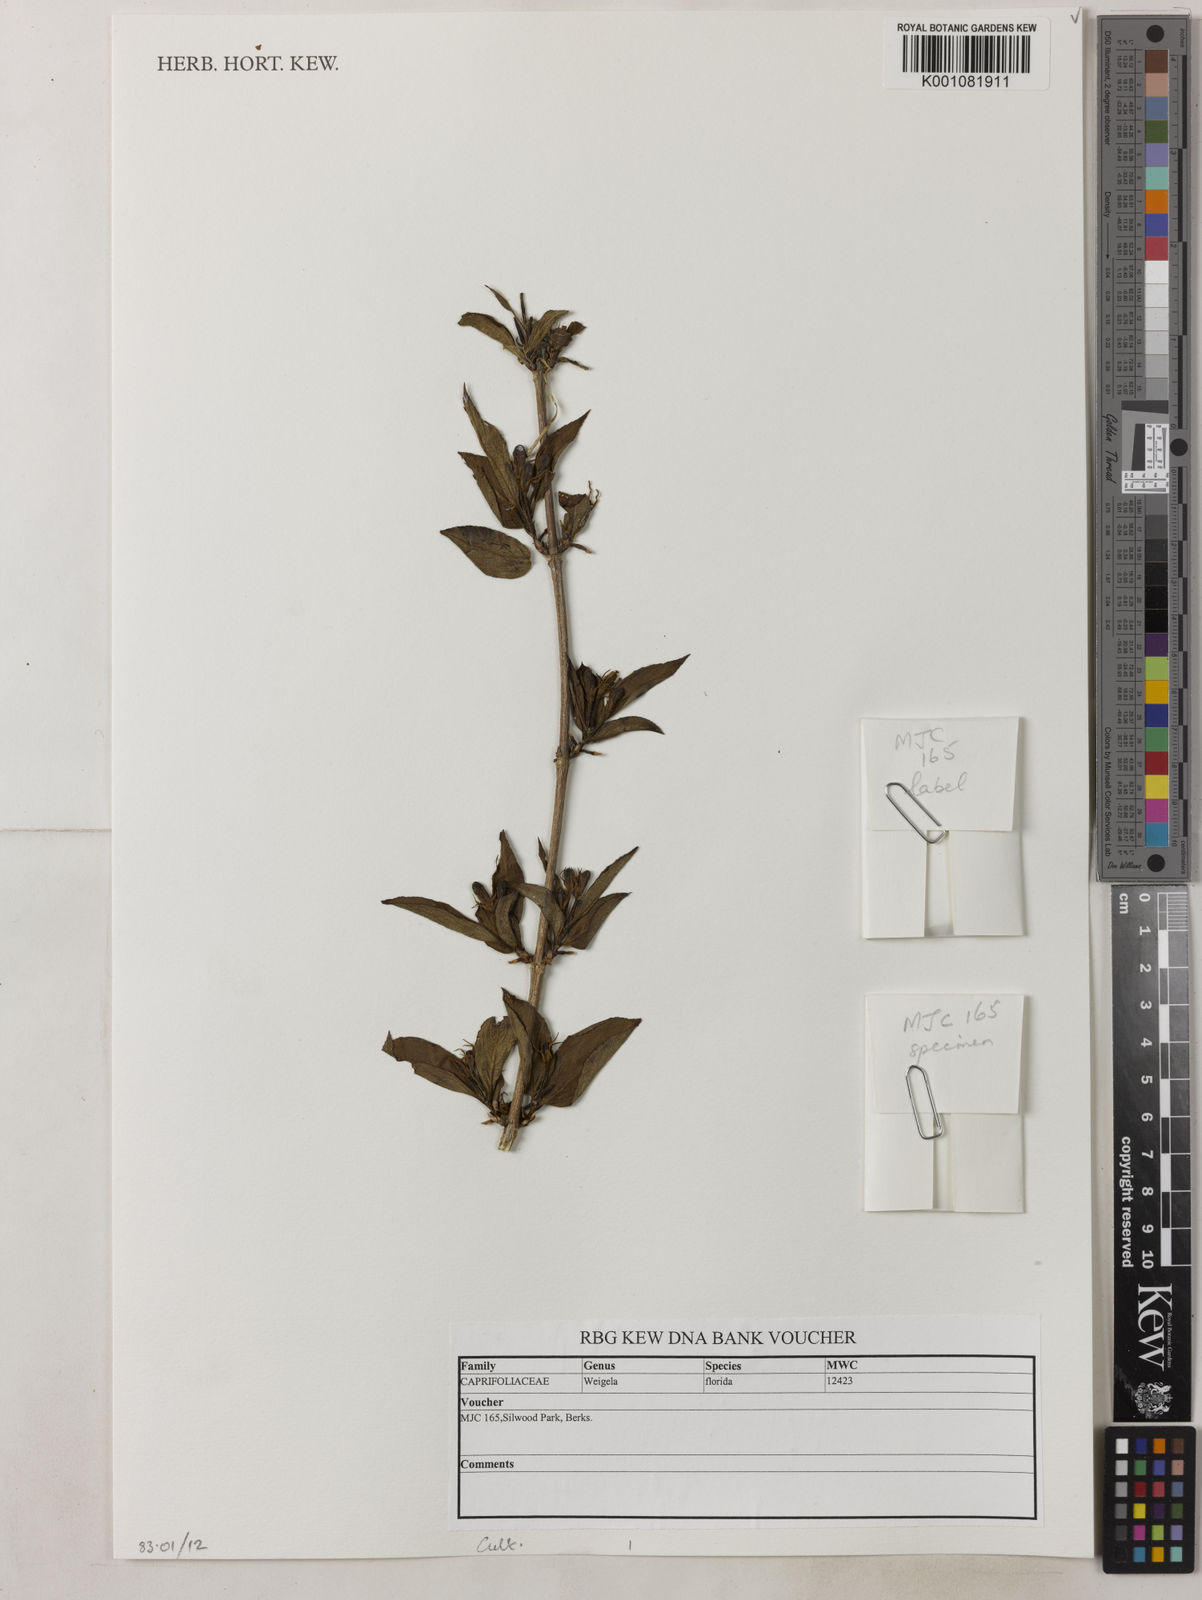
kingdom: Plantae
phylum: Tracheophyta
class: Magnoliopsida
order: Dipsacales
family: Caprifoliaceae
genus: Weigela
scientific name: Weigela florida
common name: Weigelia
